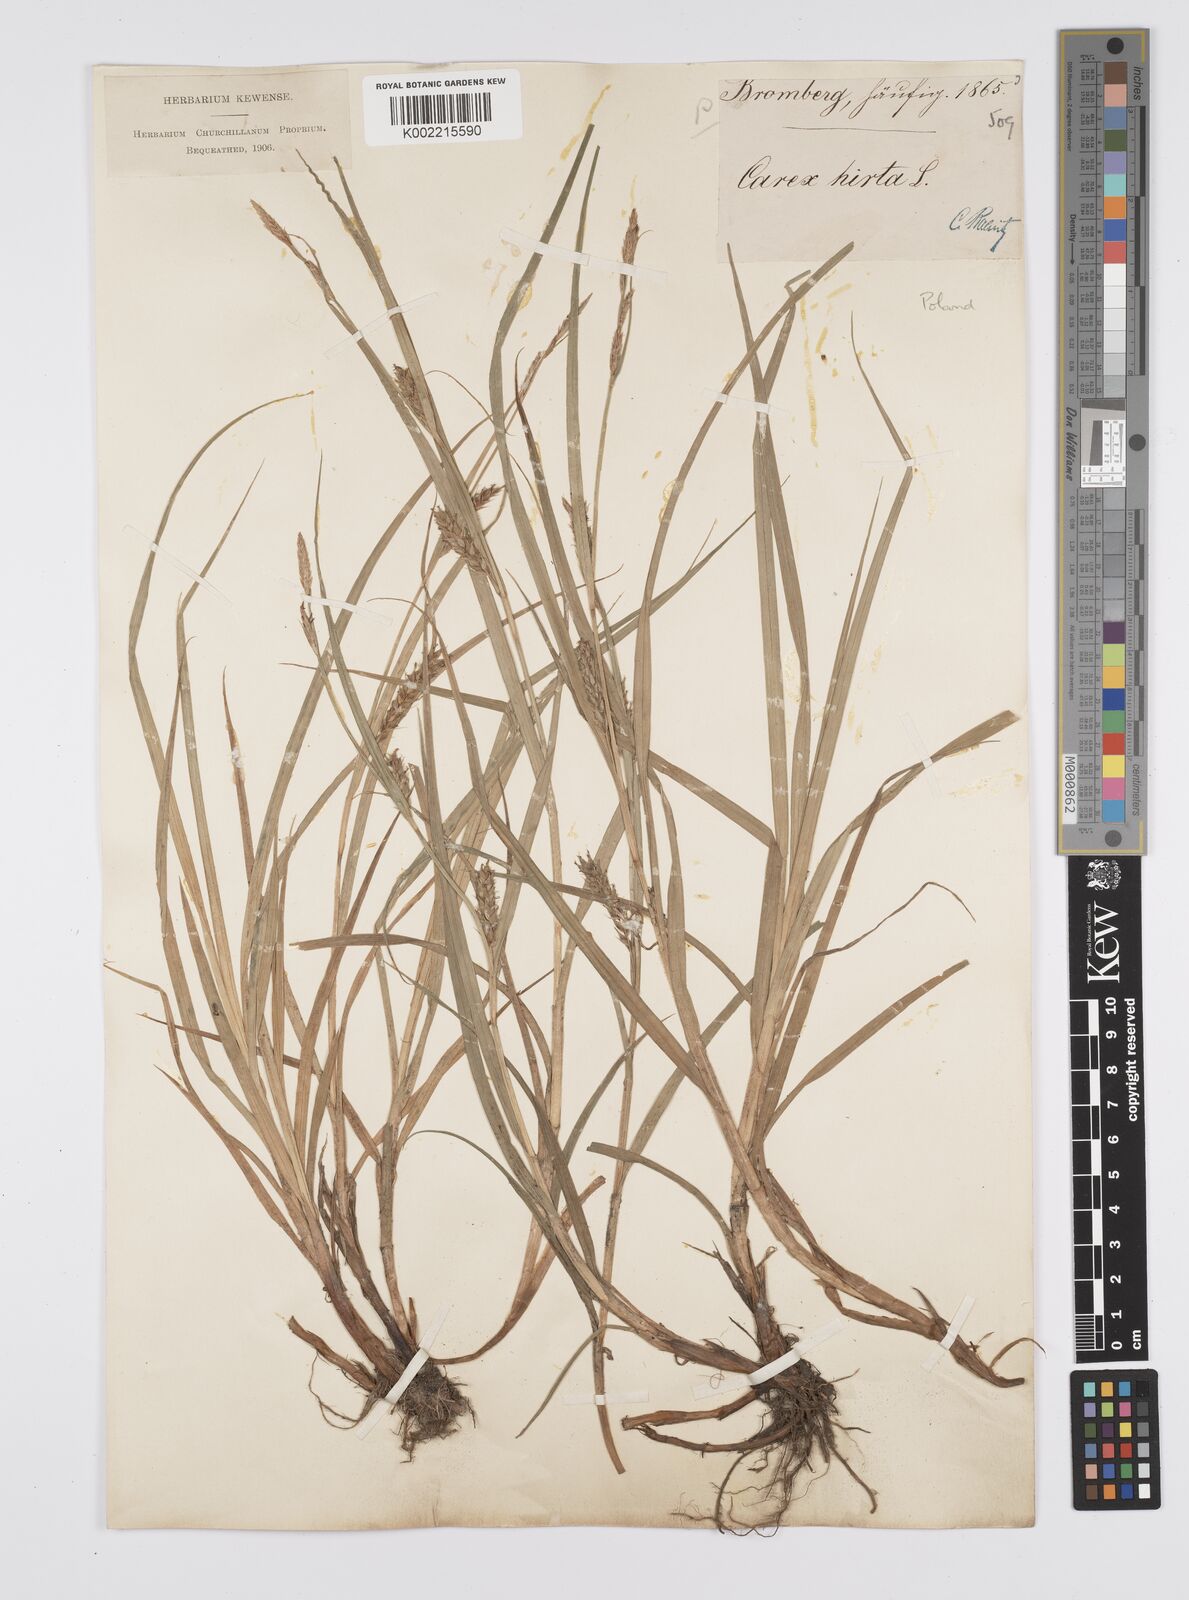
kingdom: Plantae
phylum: Tracheophyta
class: Liliopsida
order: Poales
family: Cyperaceae
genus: Carex
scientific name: Carex hirta
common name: Hairy sedge
